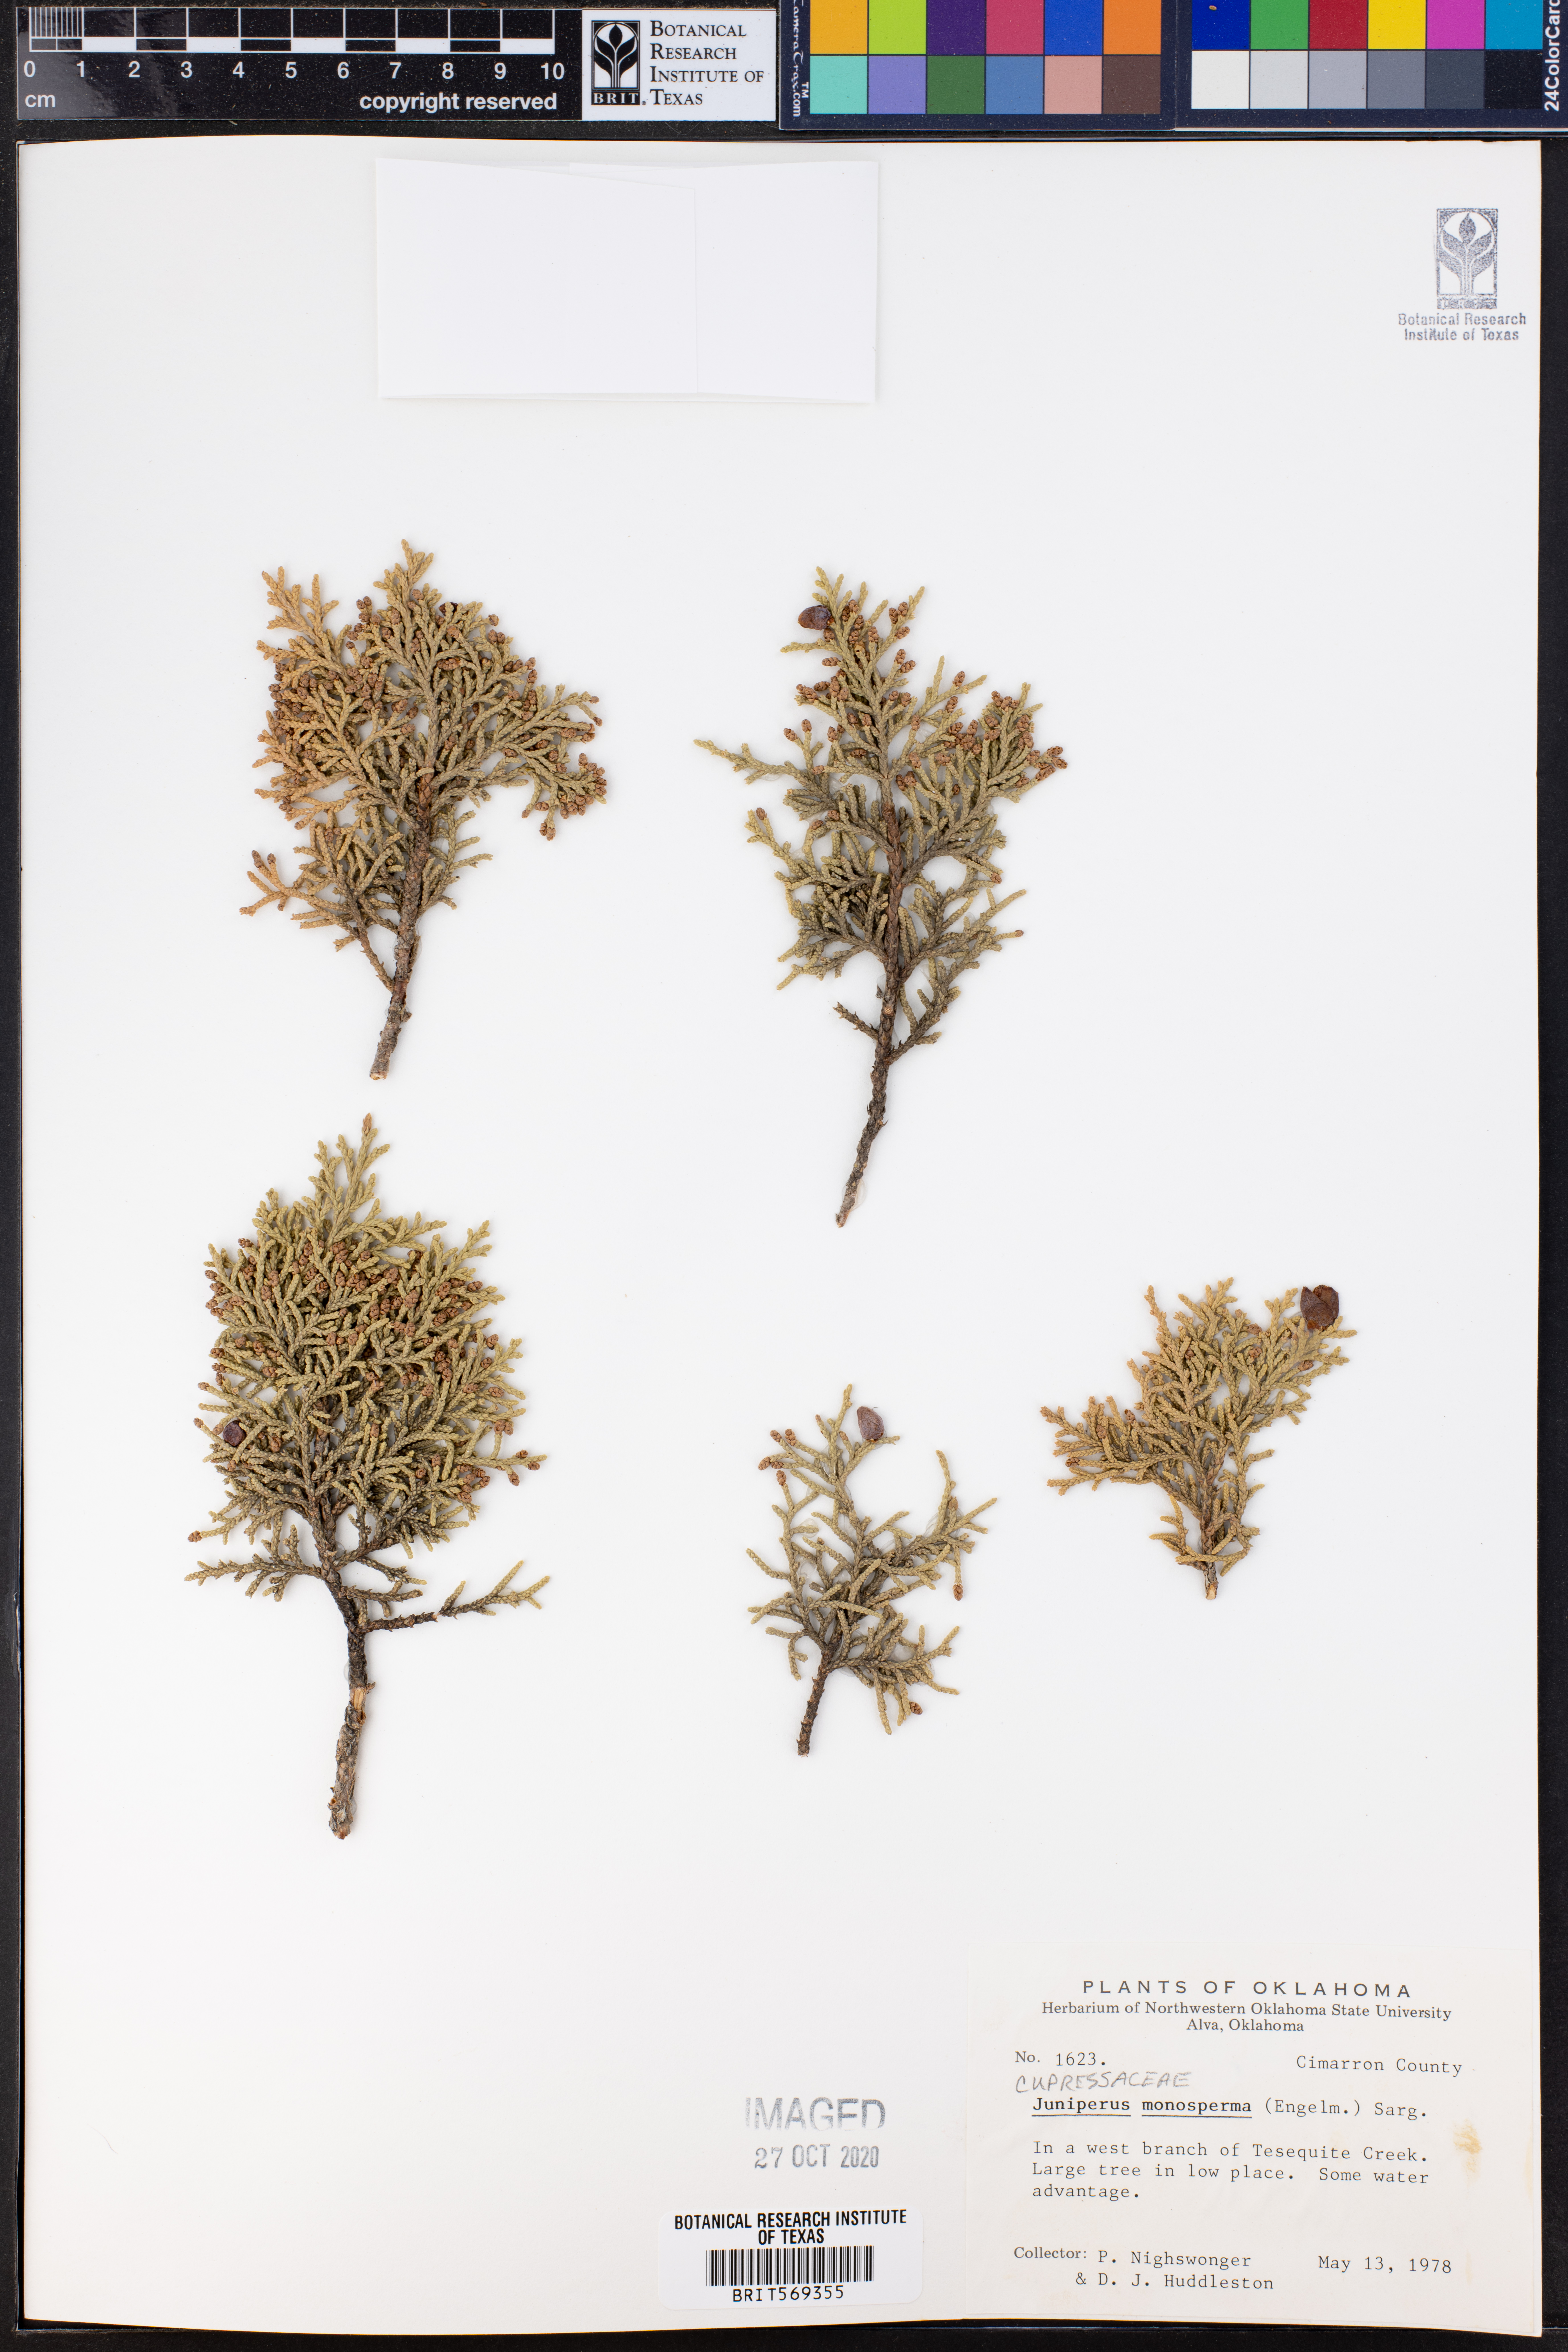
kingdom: Plantae
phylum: Tracheophyta
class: Pinopsida
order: Pinales
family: Cupressaceae
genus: Juniperus
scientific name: Juniperus monosperma
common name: One-seed juniper
